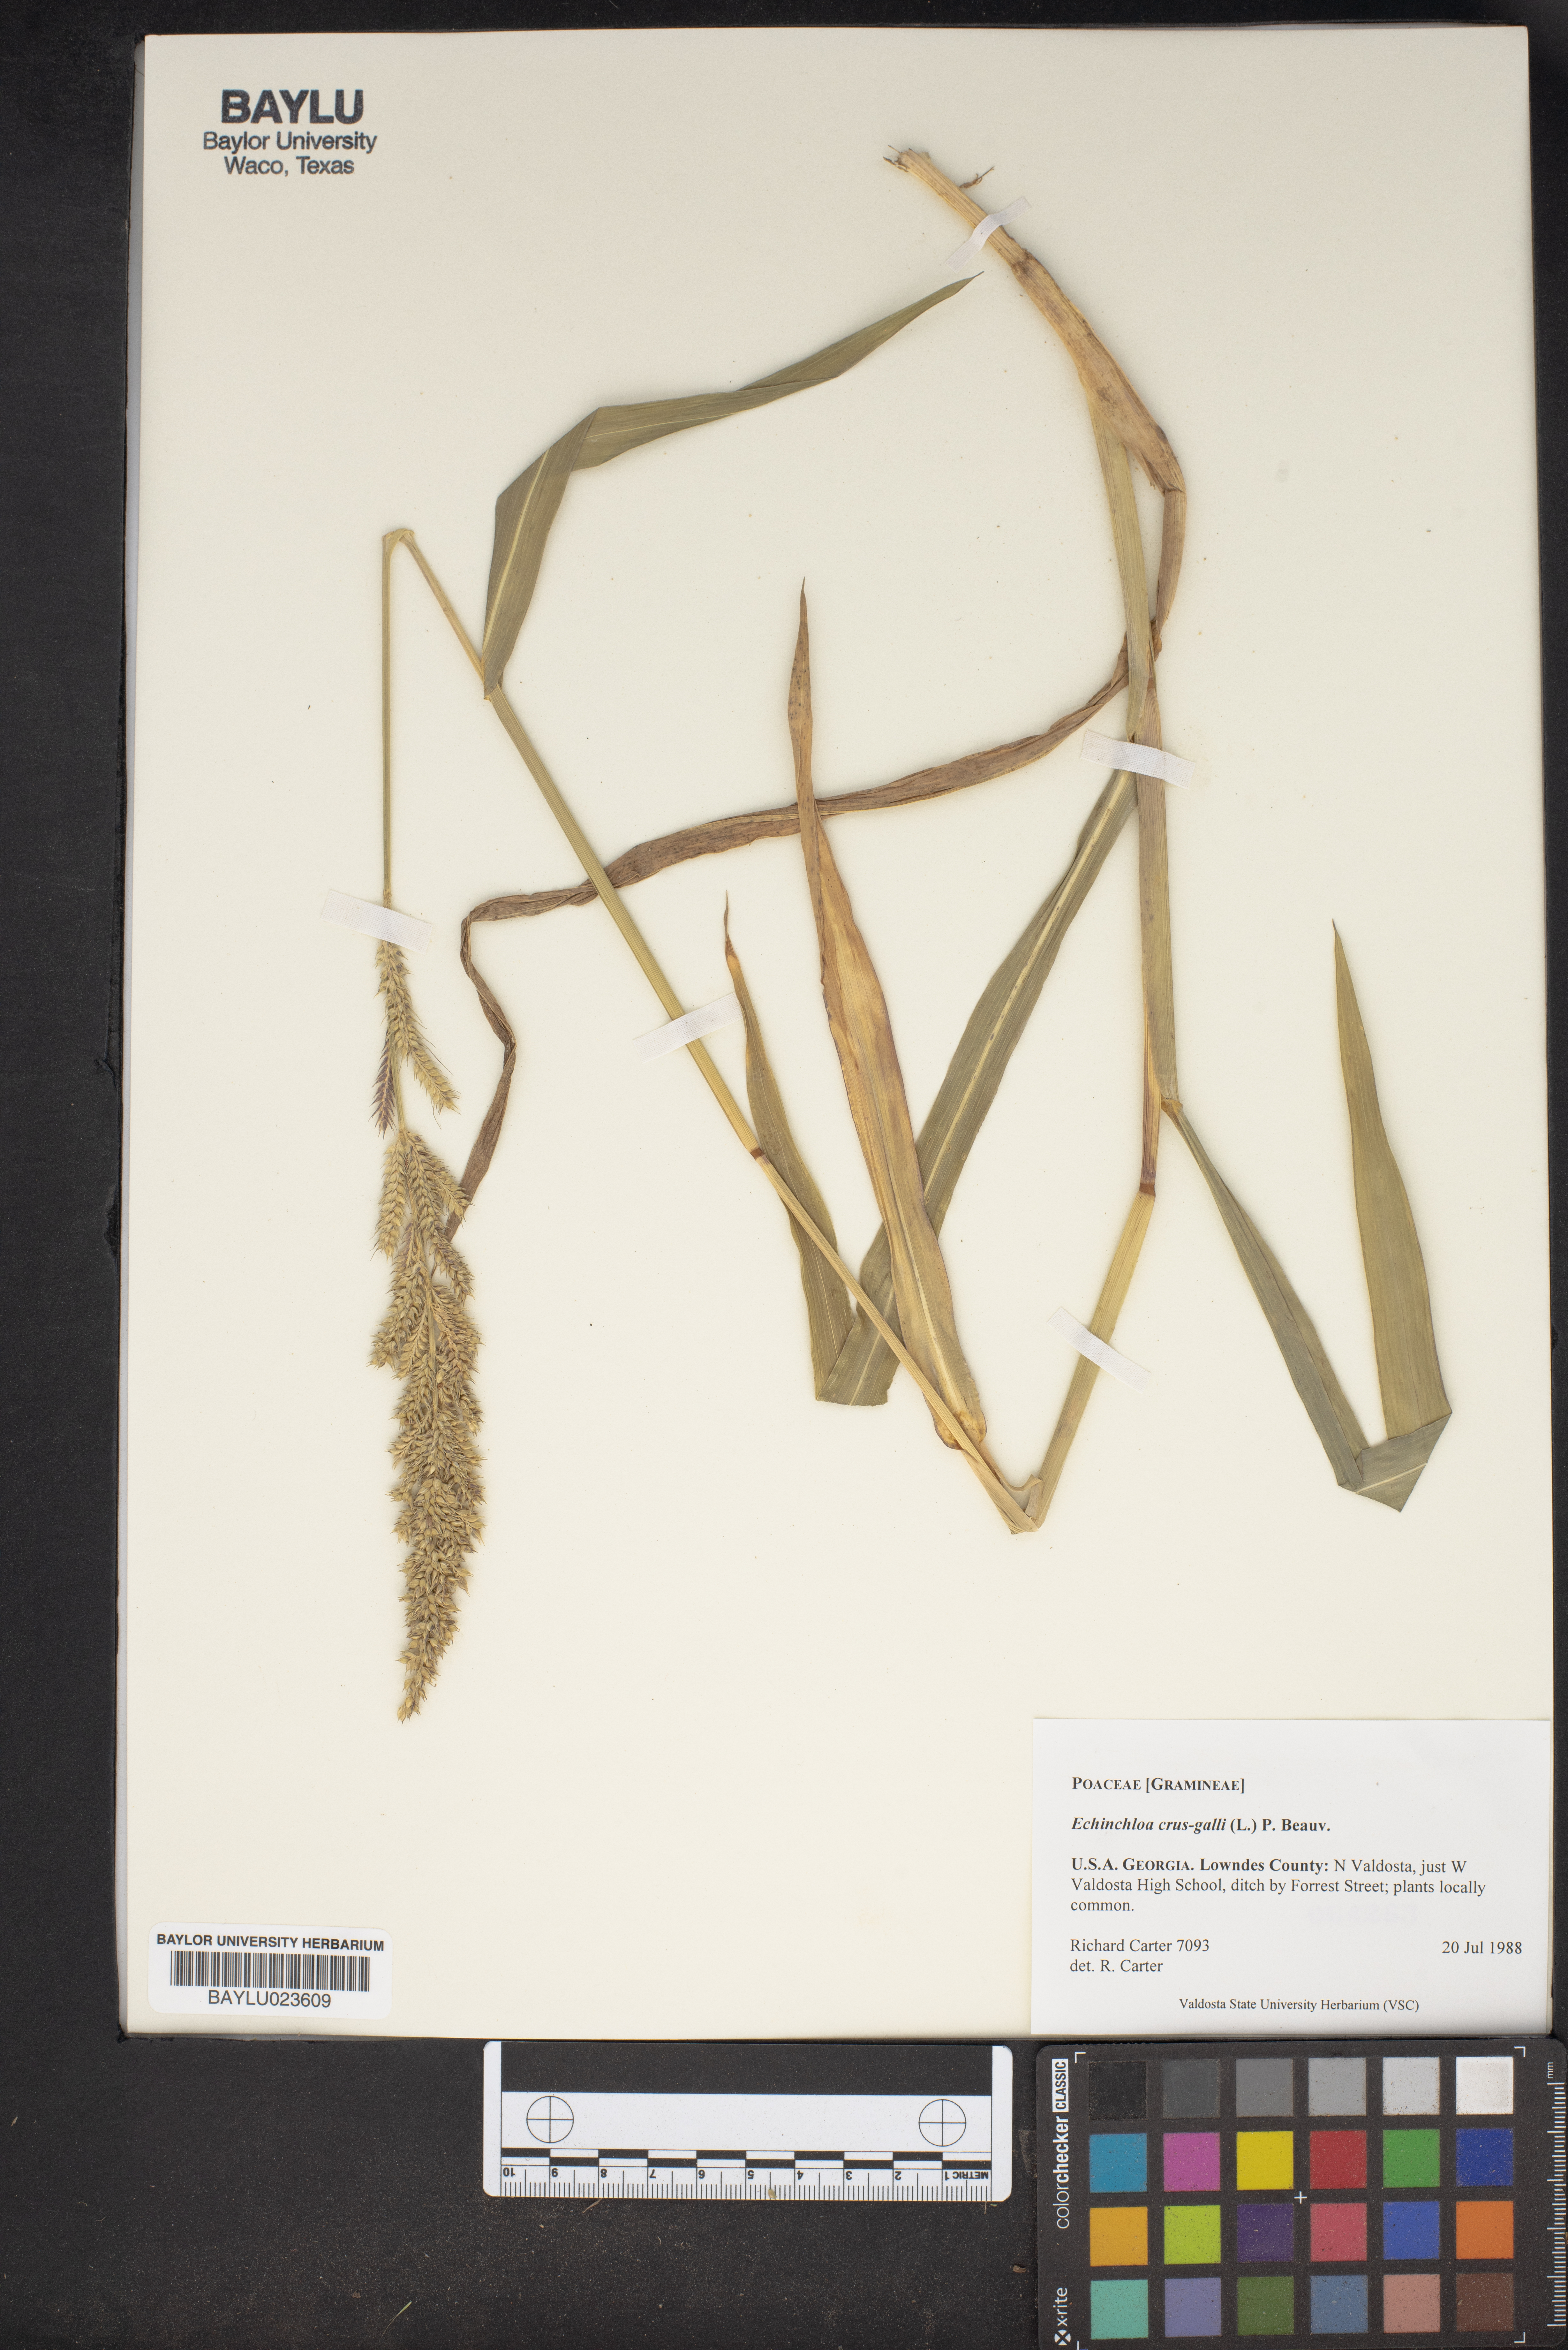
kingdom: Plantae
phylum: Tracheophyta
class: Liliopsida
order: Poales
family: Poaceae
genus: Echinochloa
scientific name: Echinochloa crus-galli
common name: Cockspur
